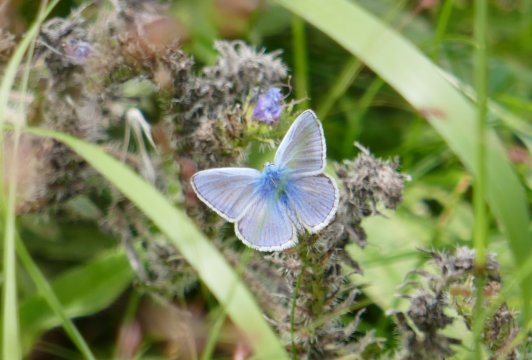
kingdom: Animalia
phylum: Arthropoda
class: Insecta
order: Lepidoptera
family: Lycaenidae
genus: Polyommatus
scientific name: Polyommatus icarus
